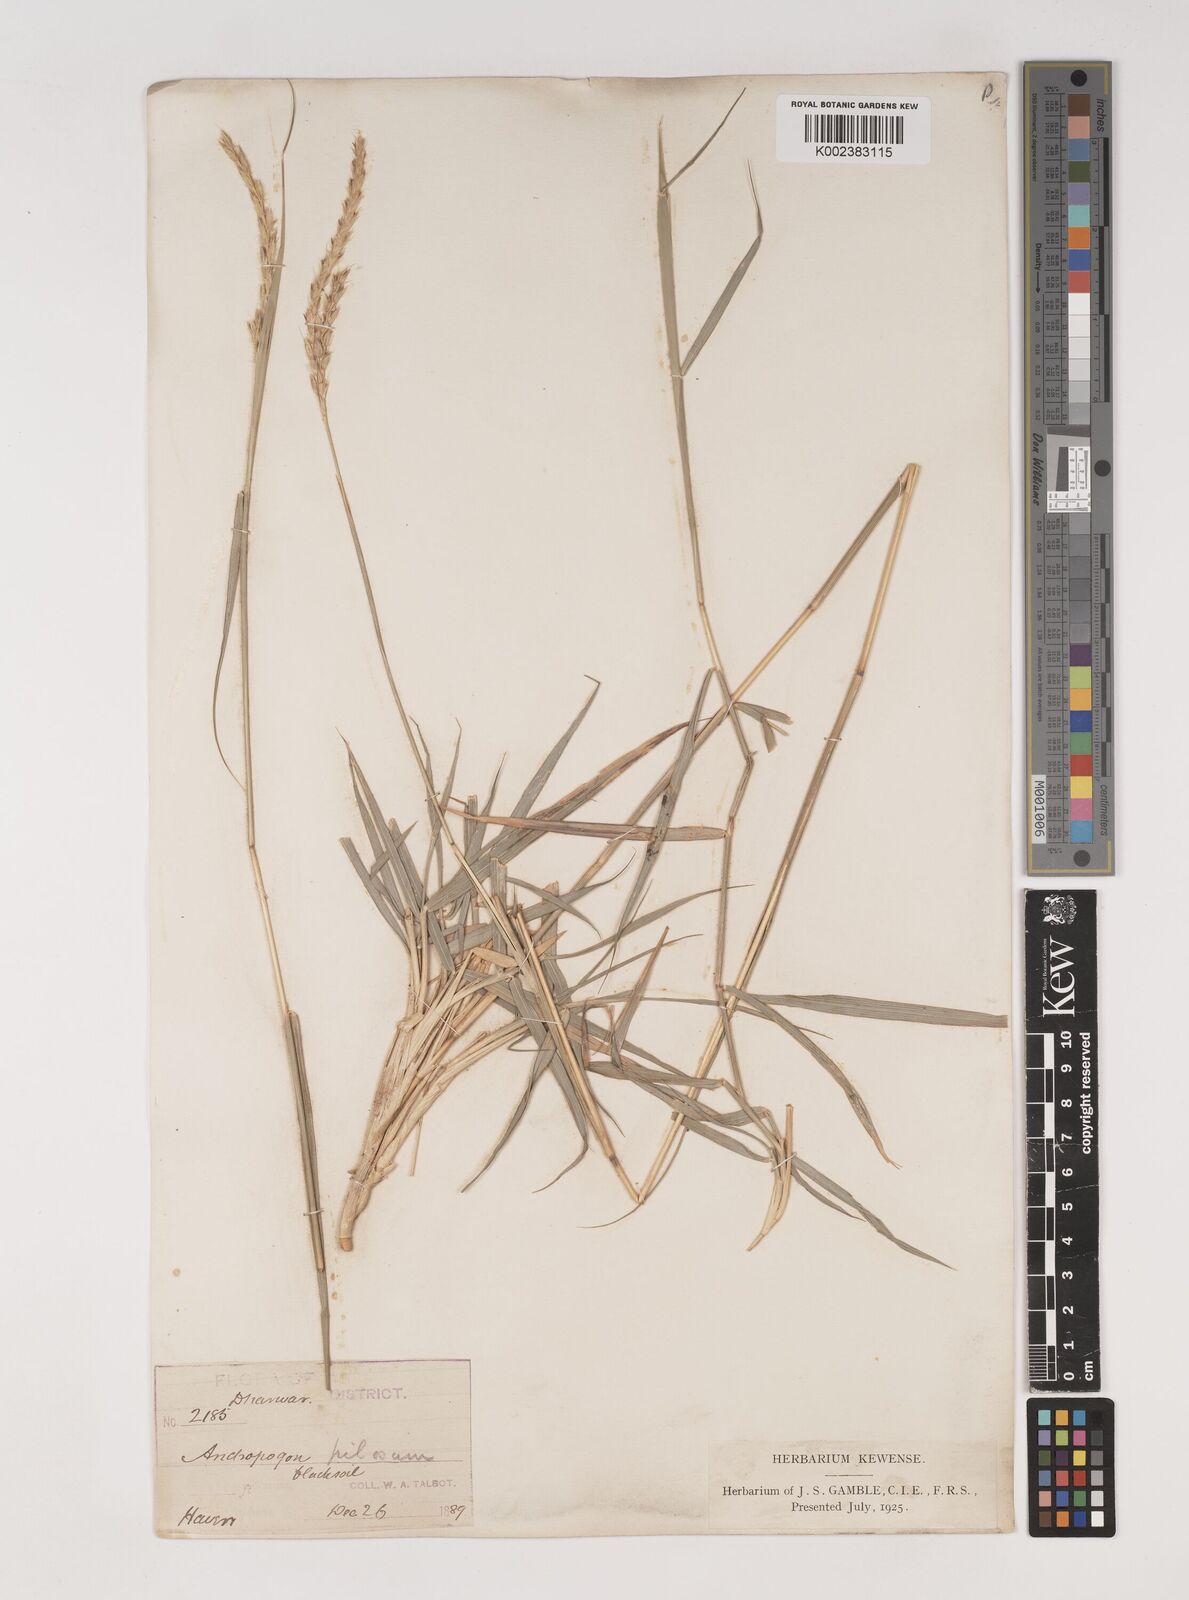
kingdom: Plantae
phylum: Tracheophyta
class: Liliopsida
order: Poales
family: Poaceae
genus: Ischaemum
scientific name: Ischaemum afrum
